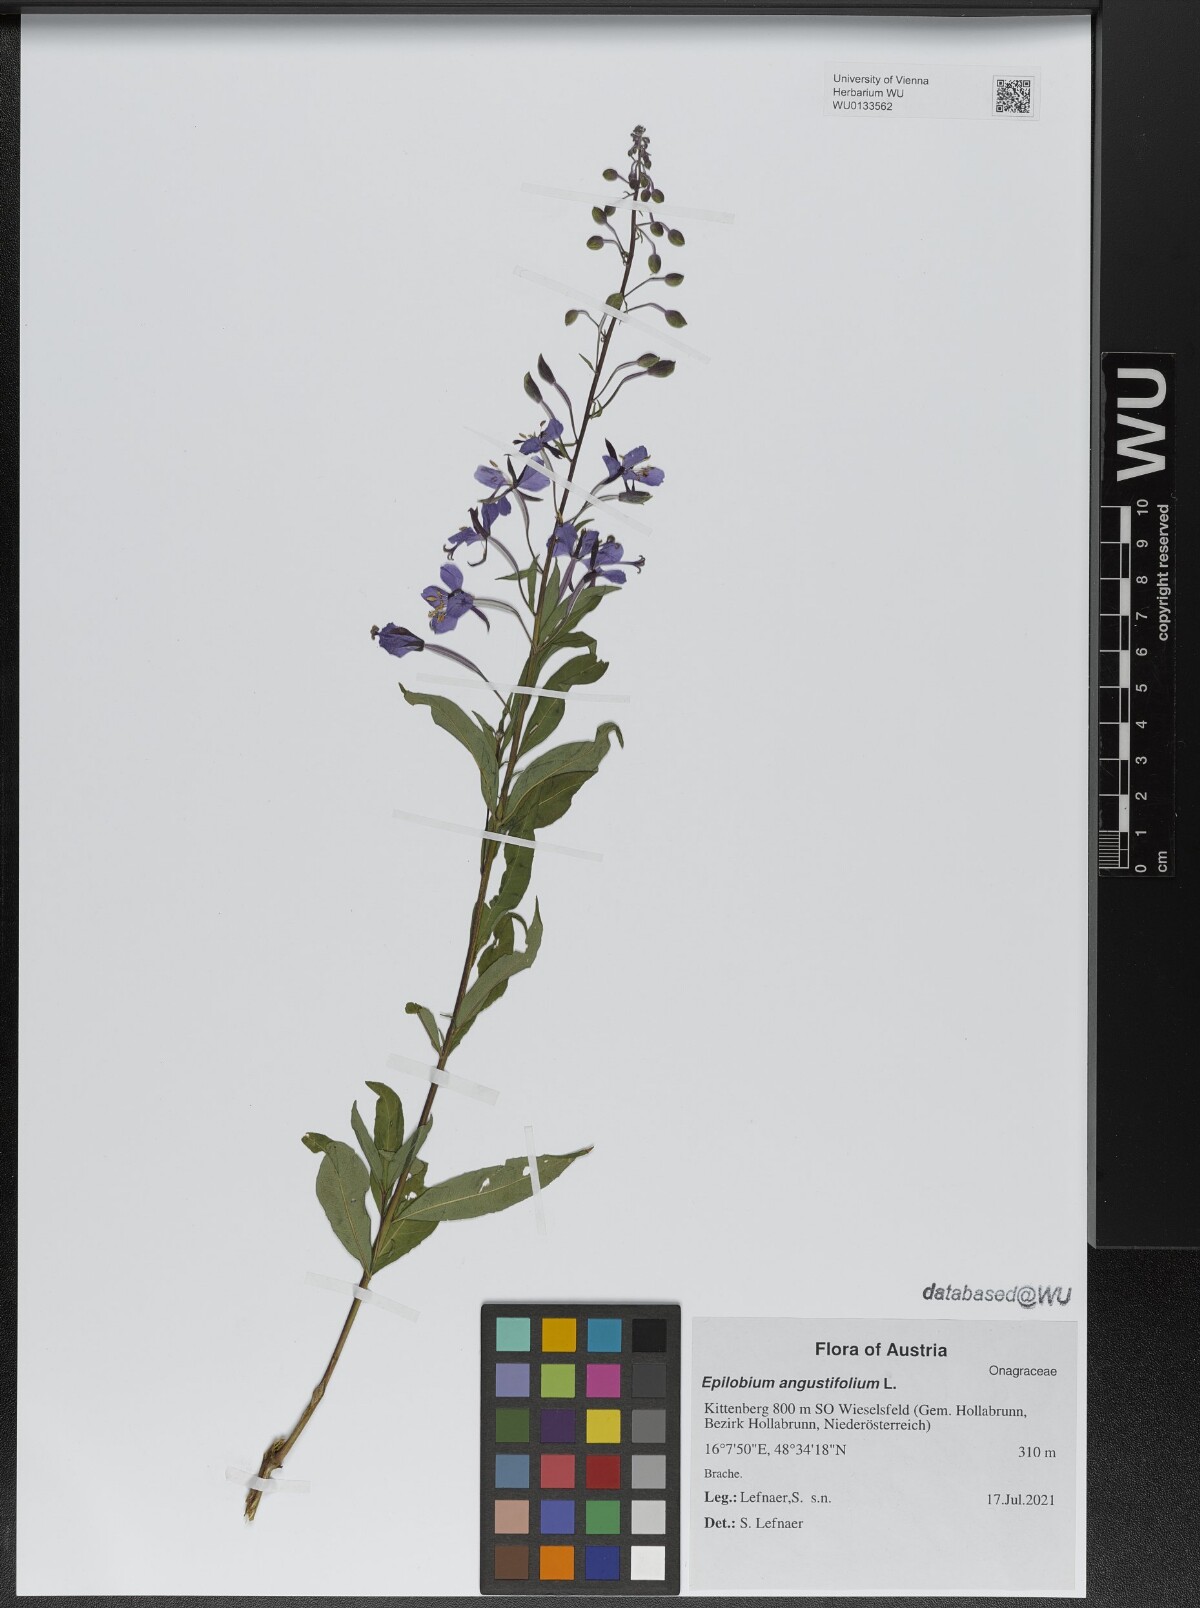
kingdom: Plantae
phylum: Tracheophyta
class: Magnoliopsida
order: Myrtales
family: Onagraceae
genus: Chamaenerion
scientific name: Chamaenerion angustifolium
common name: Fireweed
